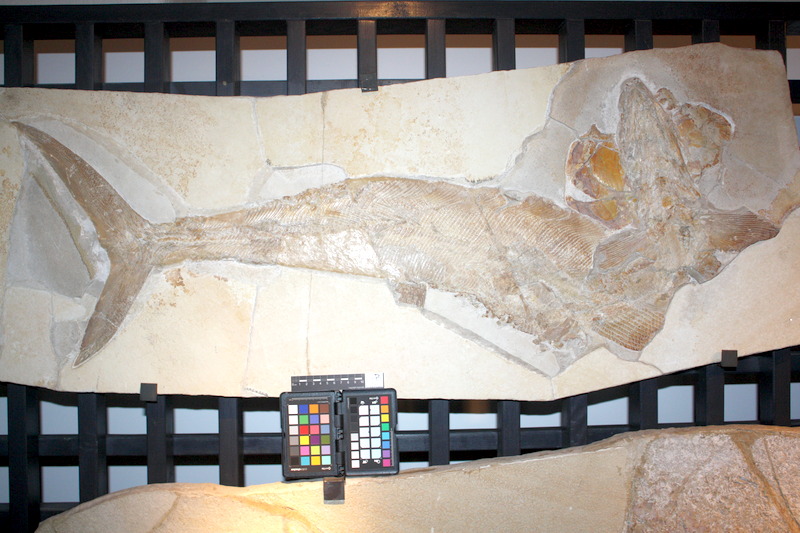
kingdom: Animalia
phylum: Chordata
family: Pachycormidae
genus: Sauropsis
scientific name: Sauropsis
